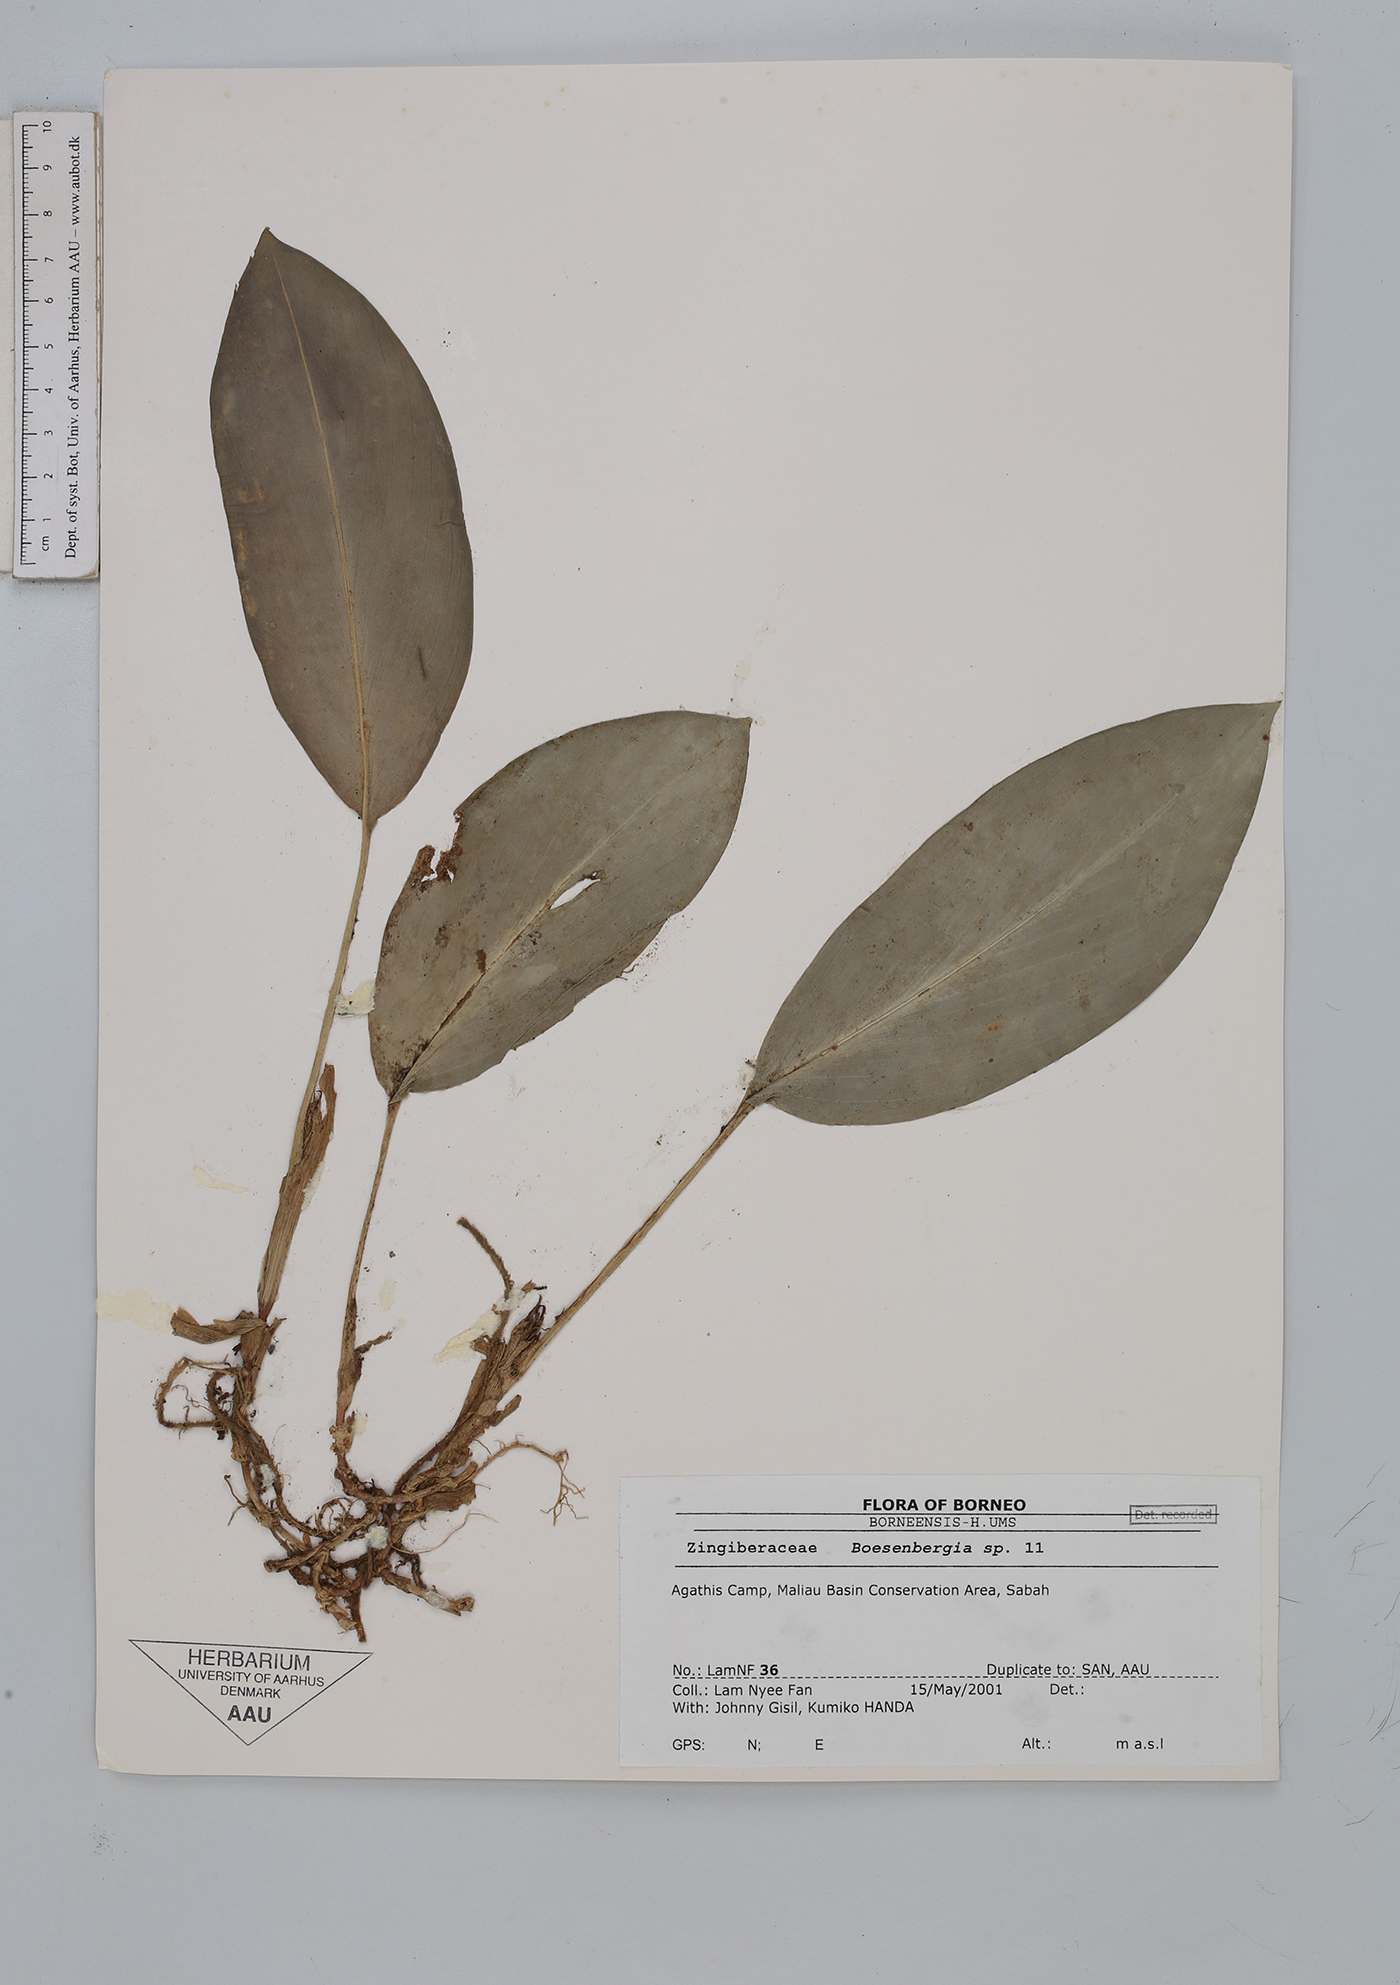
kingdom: Plantae
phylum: Tracheophyta
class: Liliopsida
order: Zingiberales
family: Zingiberaceae
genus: Boesenbergia
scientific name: Boesenbergia
